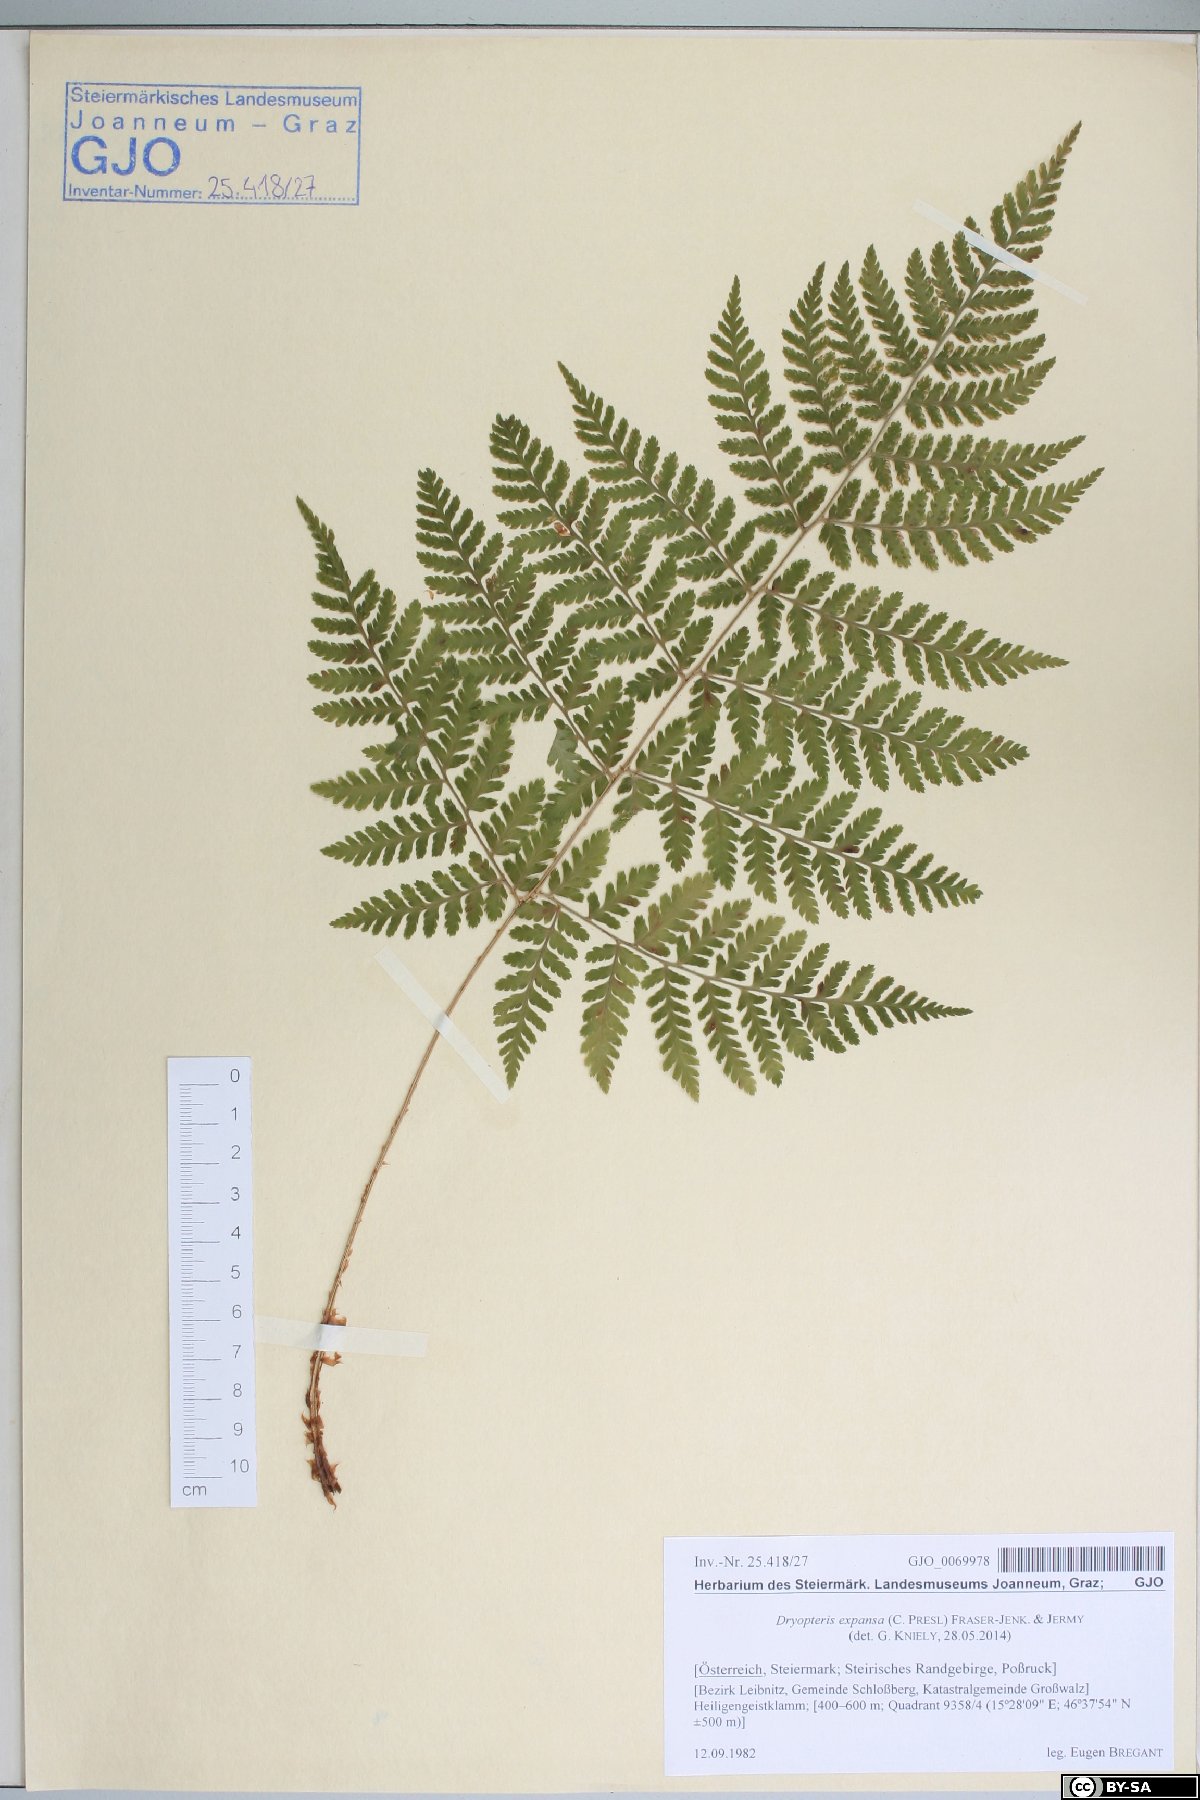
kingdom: Plantae
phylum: Tracheophyta
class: Polypodiopsida
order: Polypodiales
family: Dryopteridaceae
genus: Dryopteris
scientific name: Dryopteris expansa
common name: Northern buckler fern
